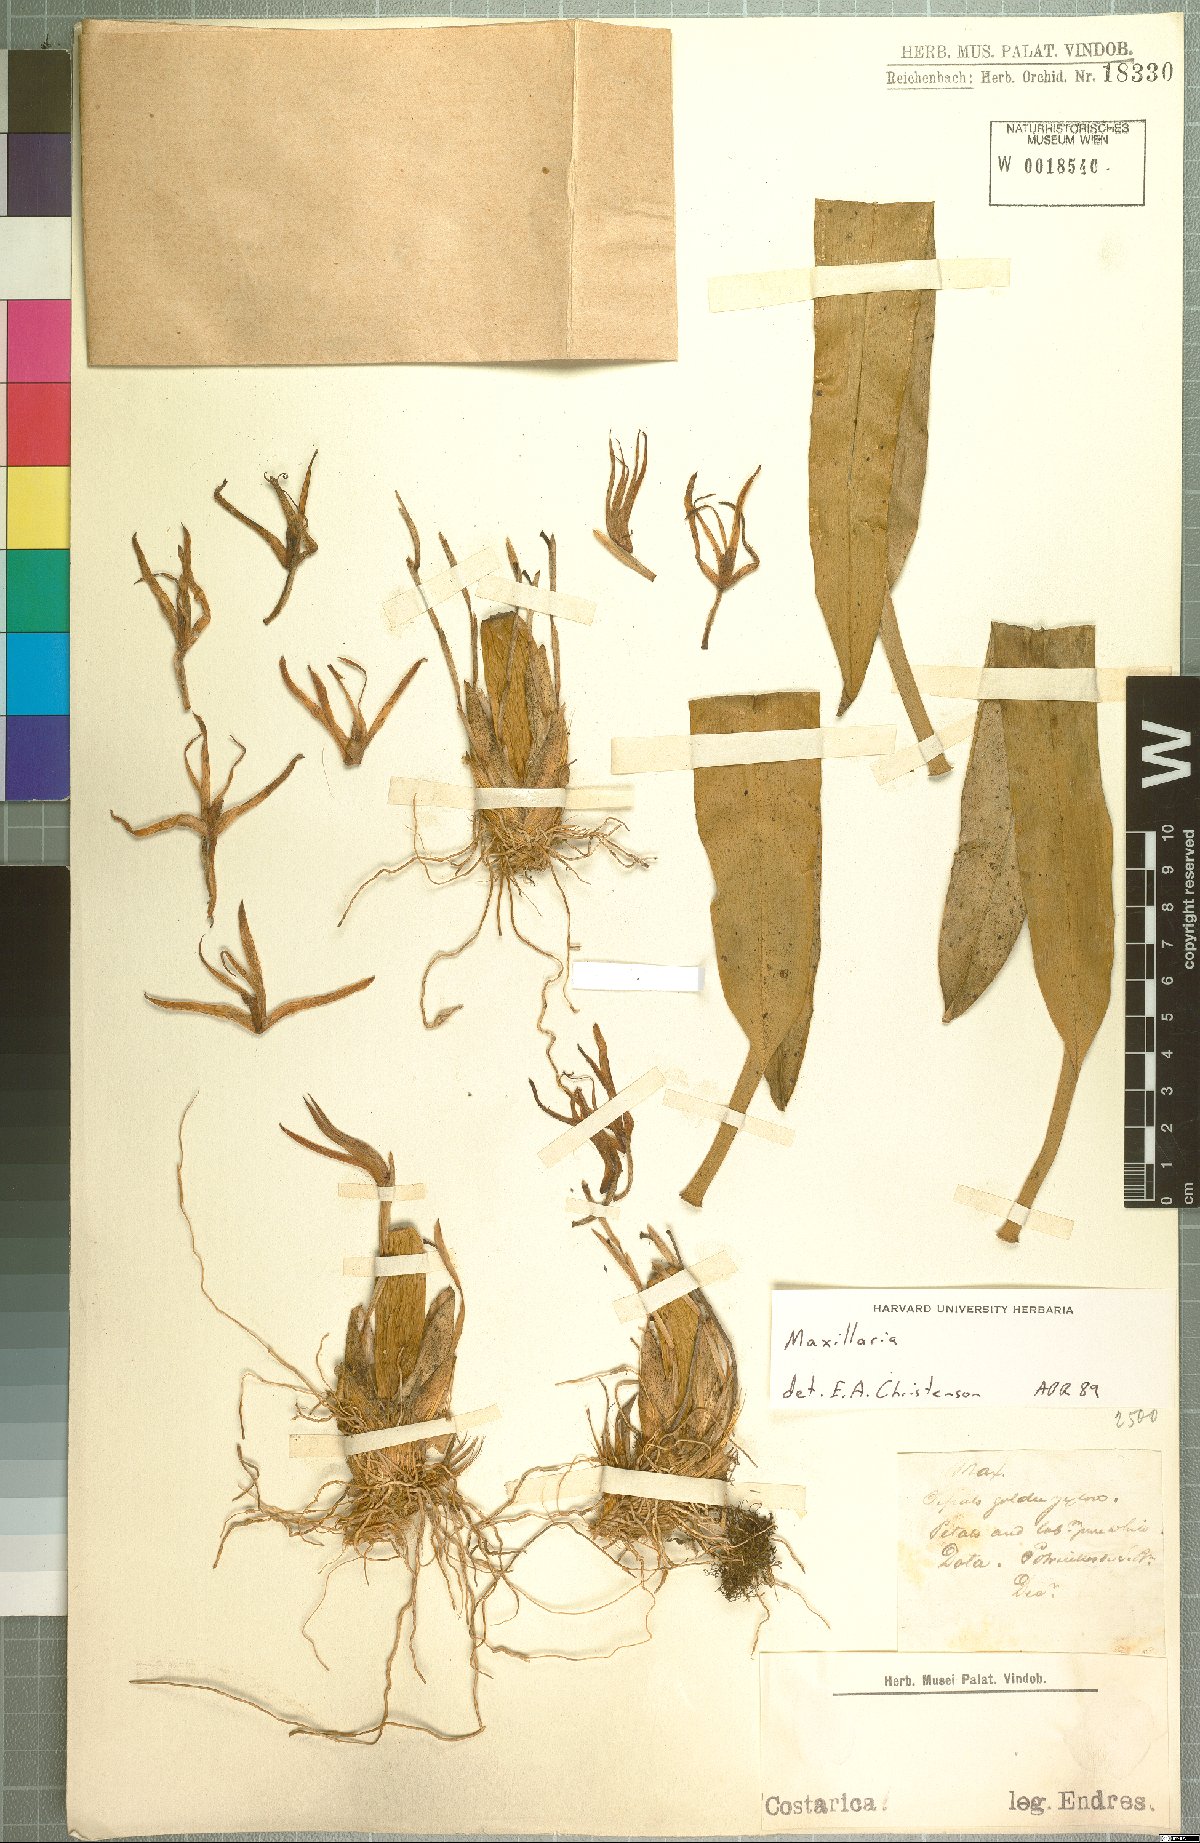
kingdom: Plantae
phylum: Tracheophyta
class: Liliopsida
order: Asparagales
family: Orchidaceae
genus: Maxillaria
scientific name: Maxillaria
